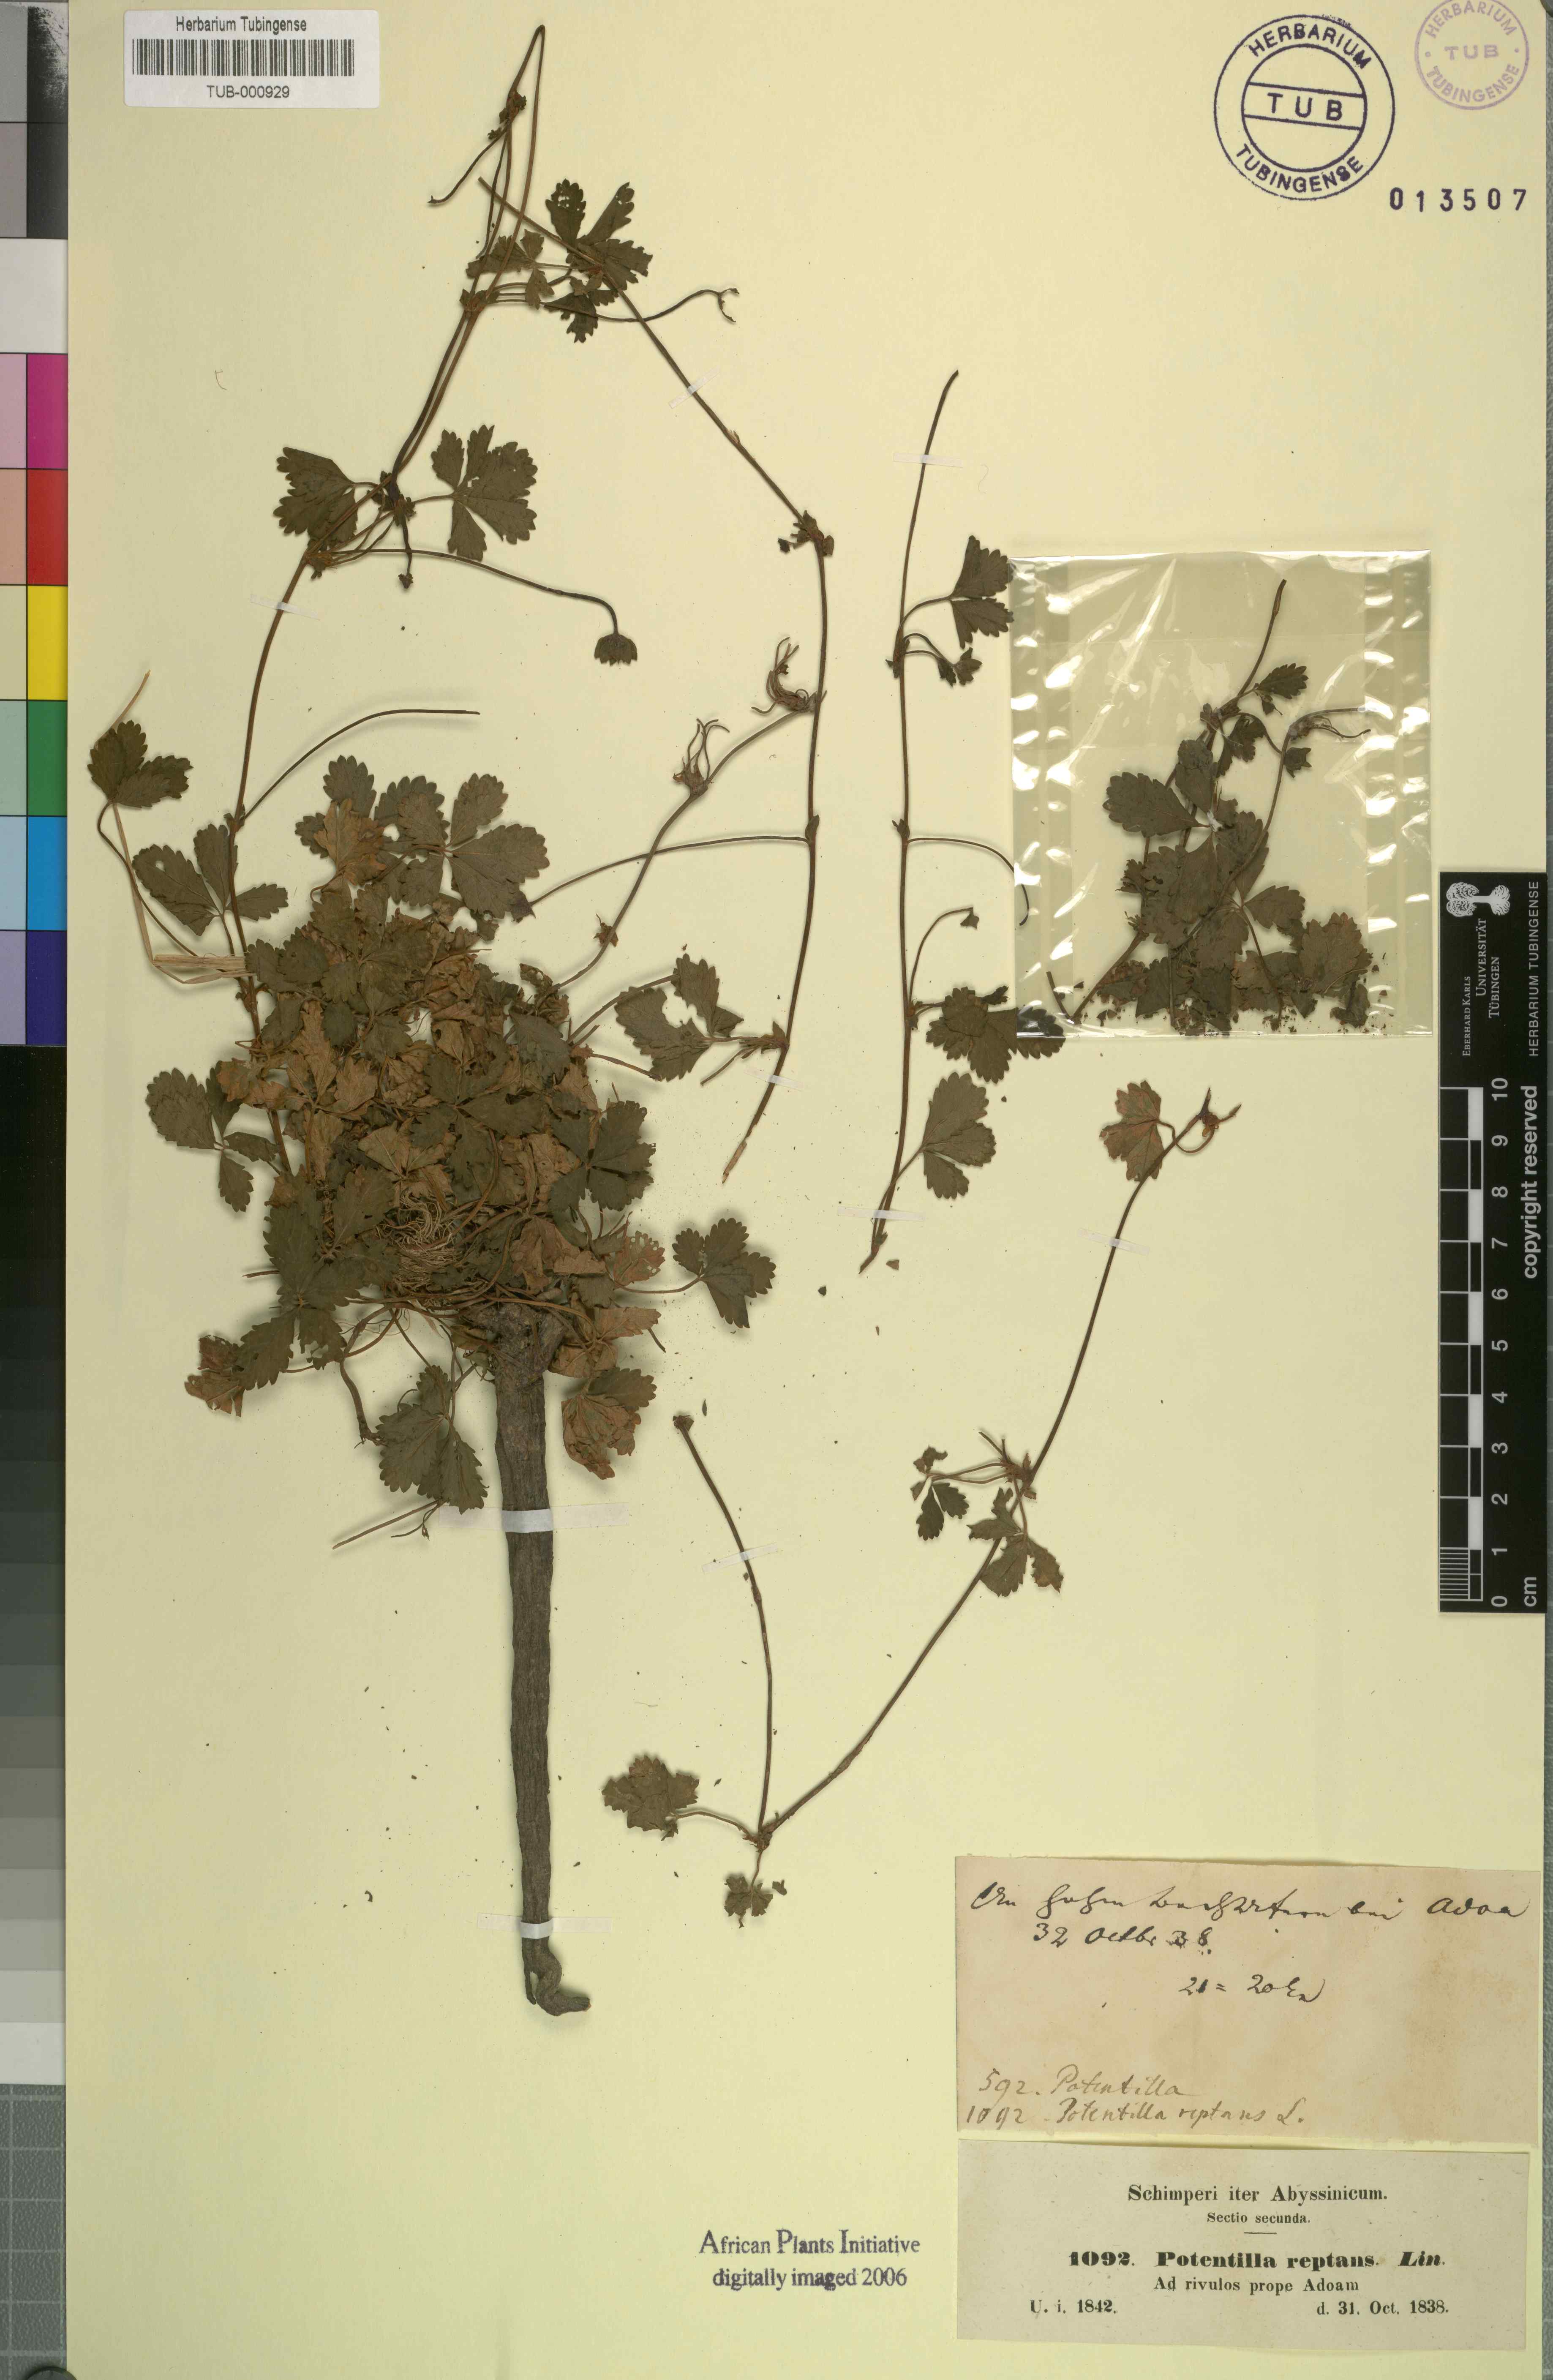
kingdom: Plantae
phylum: Tracheophyta
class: Magnoliopsida
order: Rosales
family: Rosaceae
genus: Potentilla
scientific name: Potentilla reptans
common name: Creeping cinquefoil
